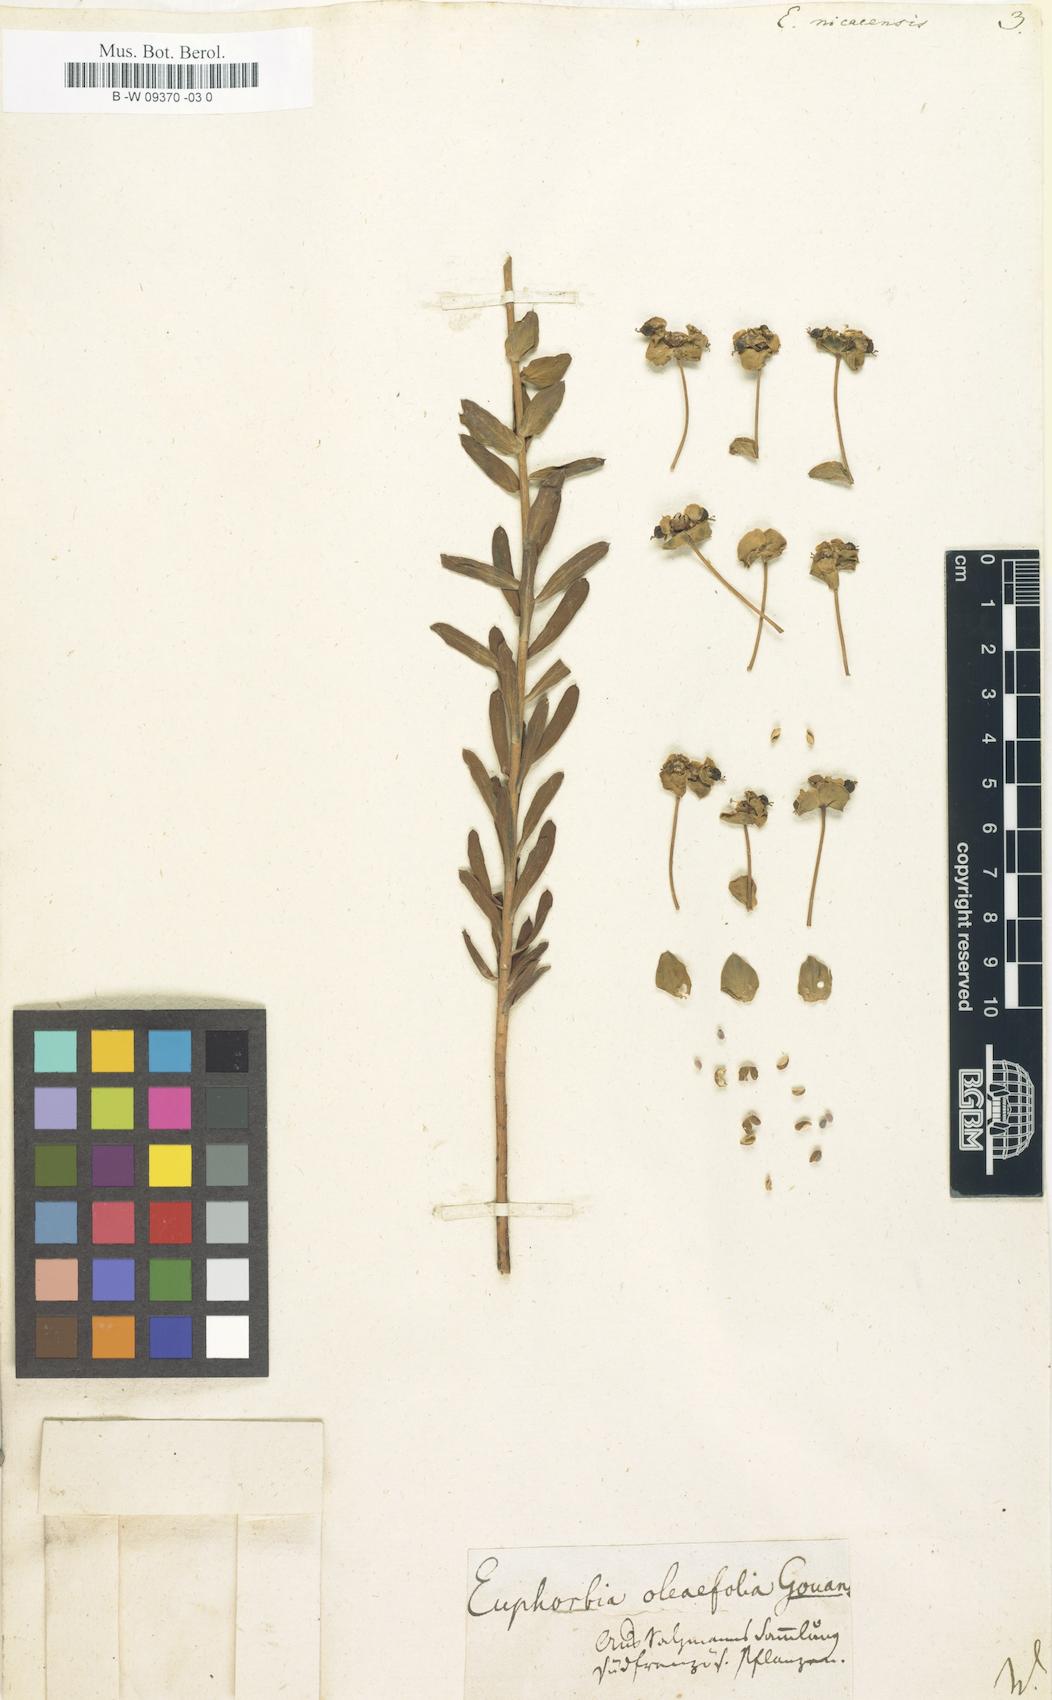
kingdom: Plantae
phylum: Tracheophyta
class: Magnoliopsida
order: Malpighiales
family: Euphorbiaceae
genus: Euphorbia
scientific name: Euphorbia nicaeensis
